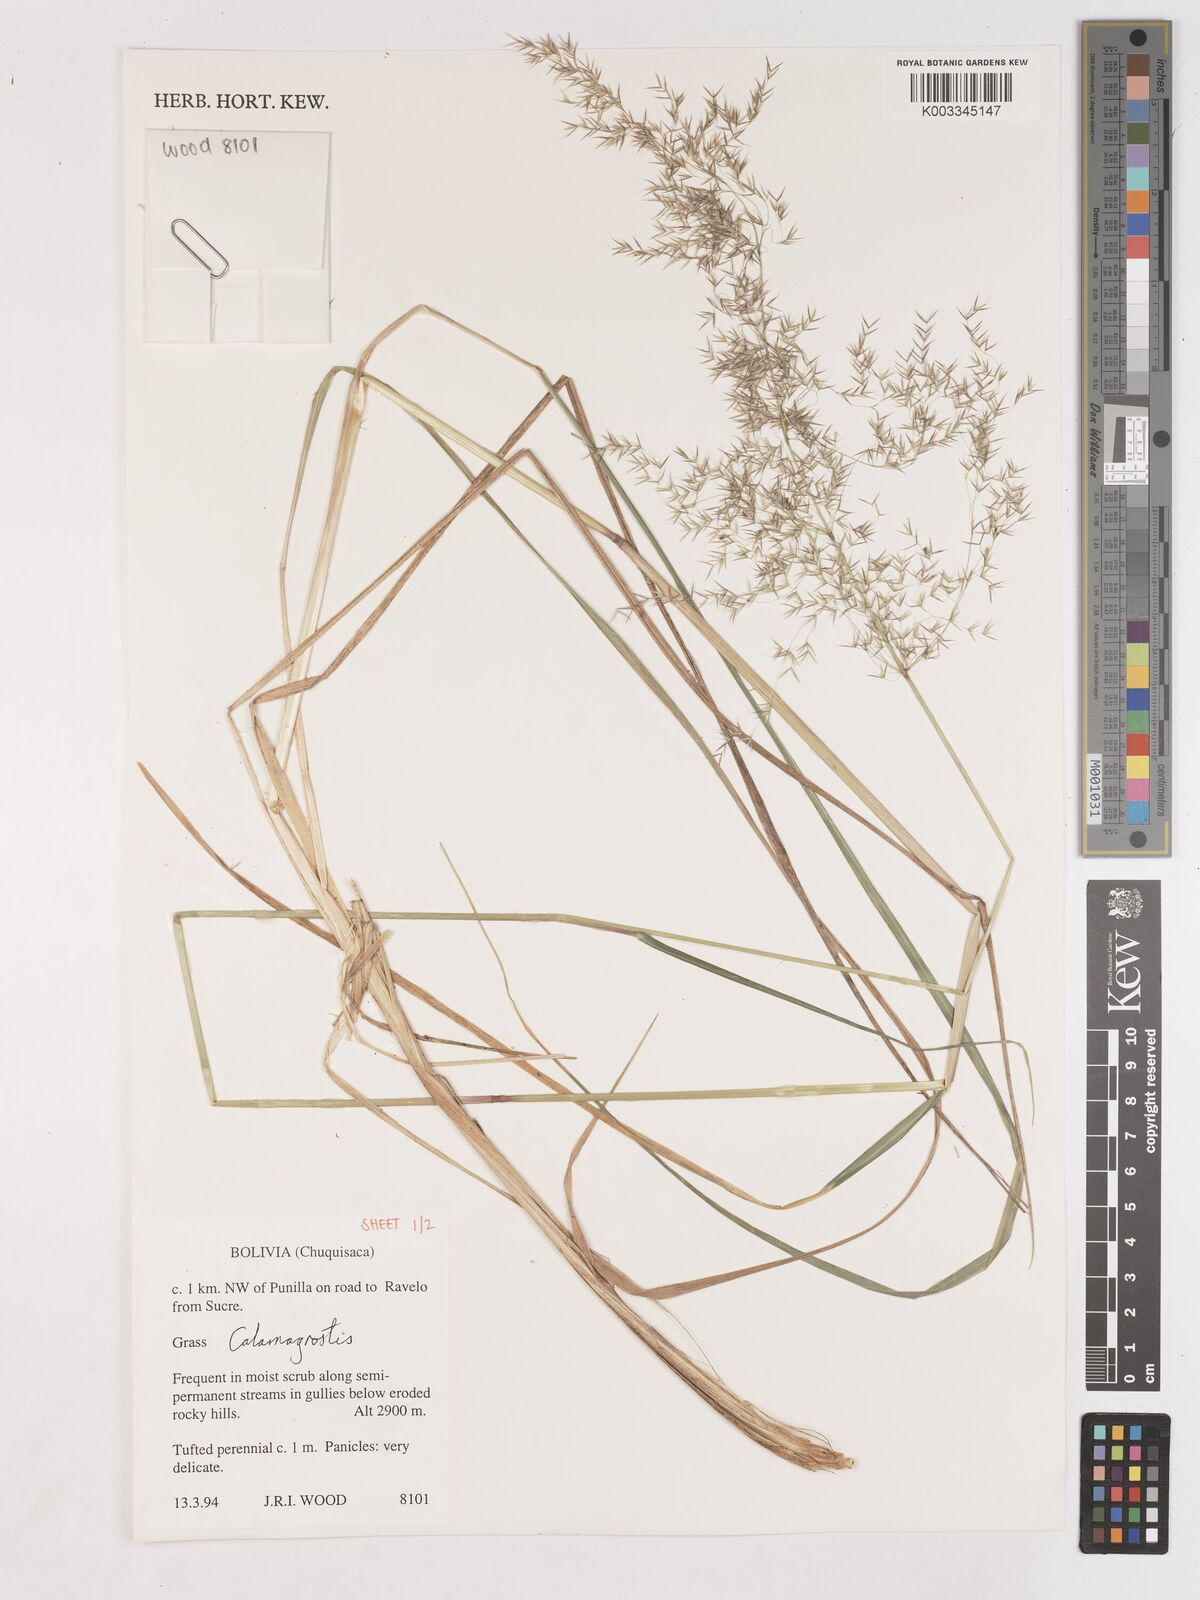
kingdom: Plantae
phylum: Tracheophyta
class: Liliopsida
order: Poales
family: Poaceae
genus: Calamagrostis
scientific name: Calamagrostis
